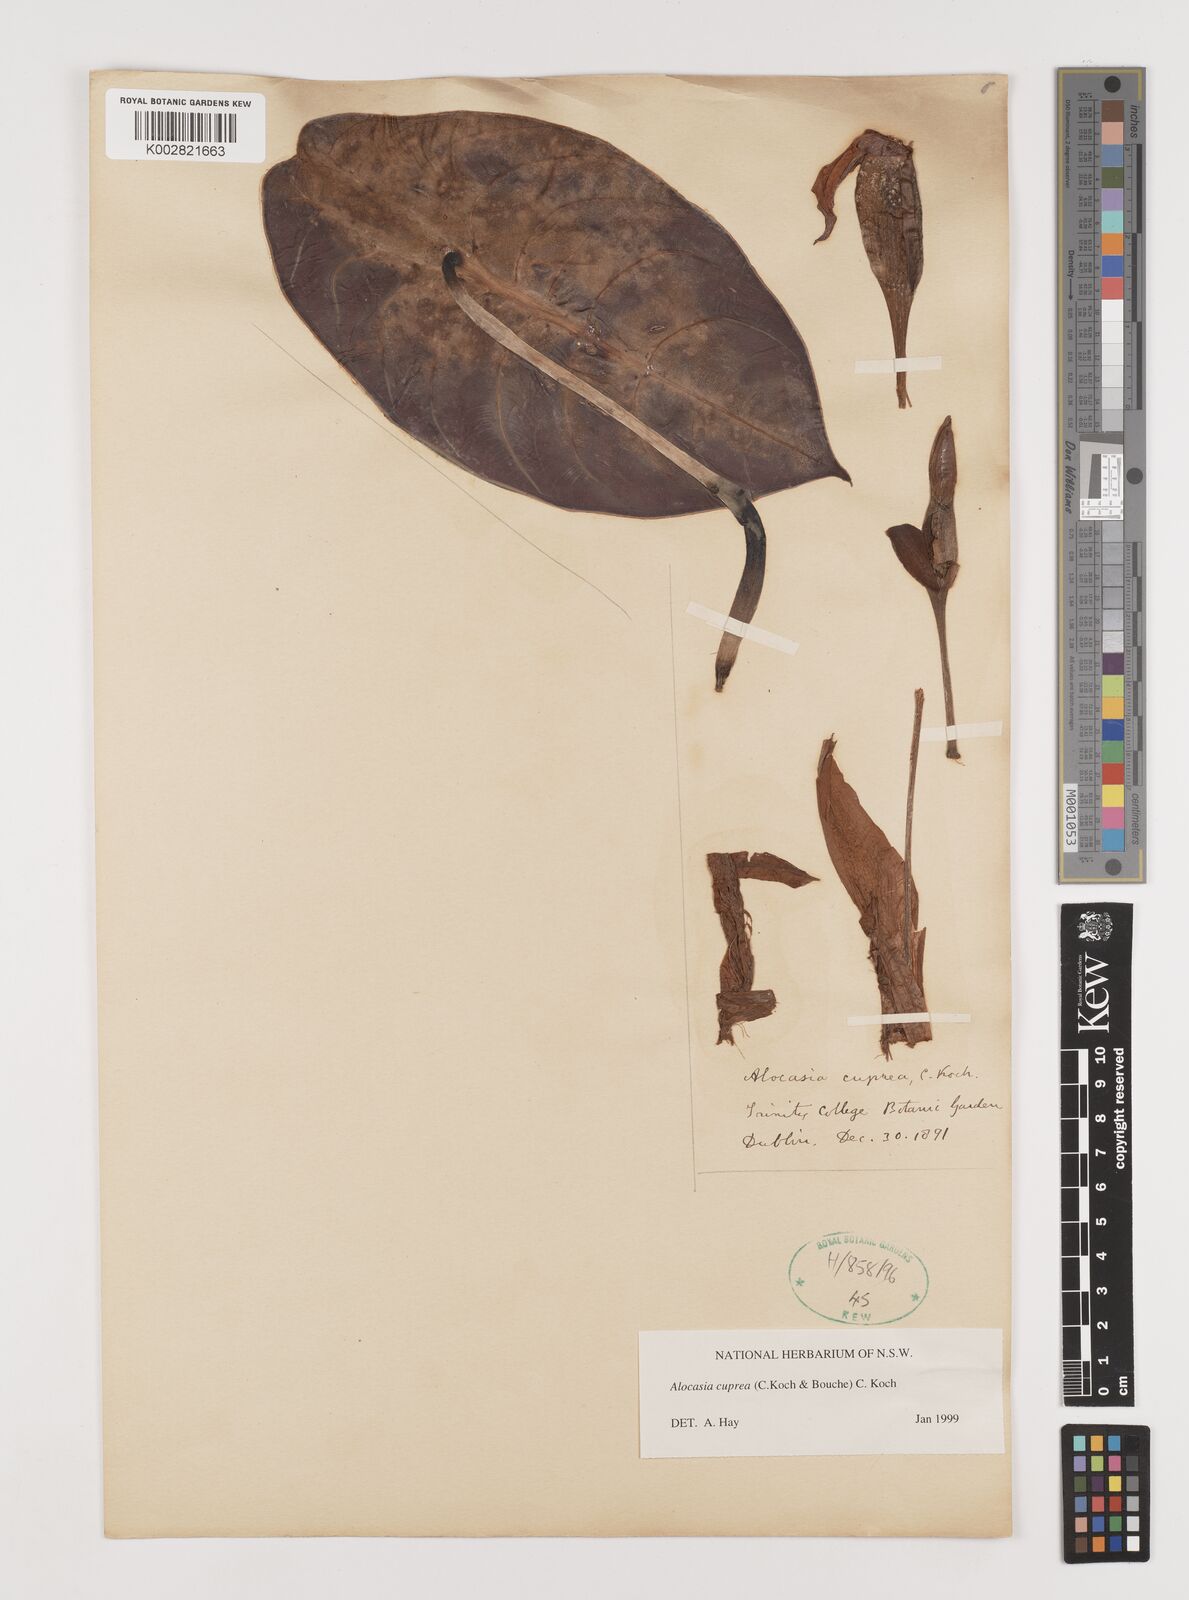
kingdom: Plantae
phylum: Tracheophyta
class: Liliopsida
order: Alismatales
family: Araceae
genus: Alocasia
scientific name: Alocasia cuprea
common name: Giant caladium
